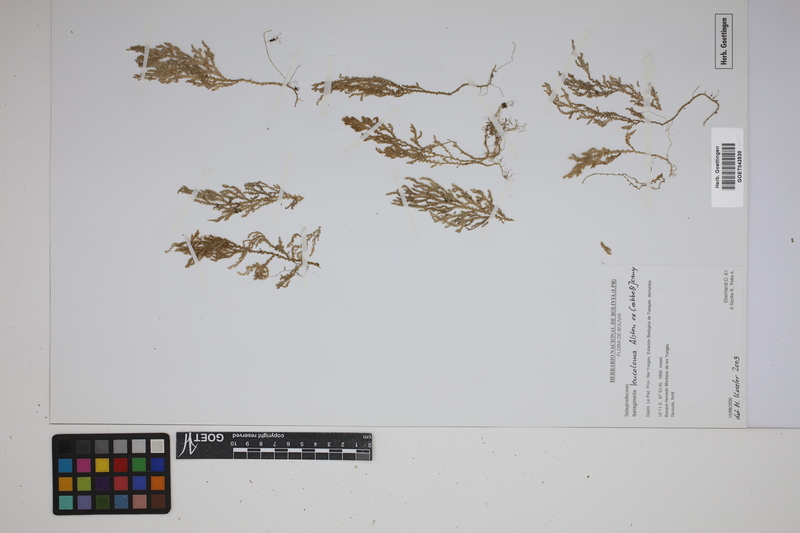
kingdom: Plantae
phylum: Tracheophyta
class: Lycopodiopsida
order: Selaginellales
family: Selaginellaceae
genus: Selaginella
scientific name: Selaginella leucoloma
